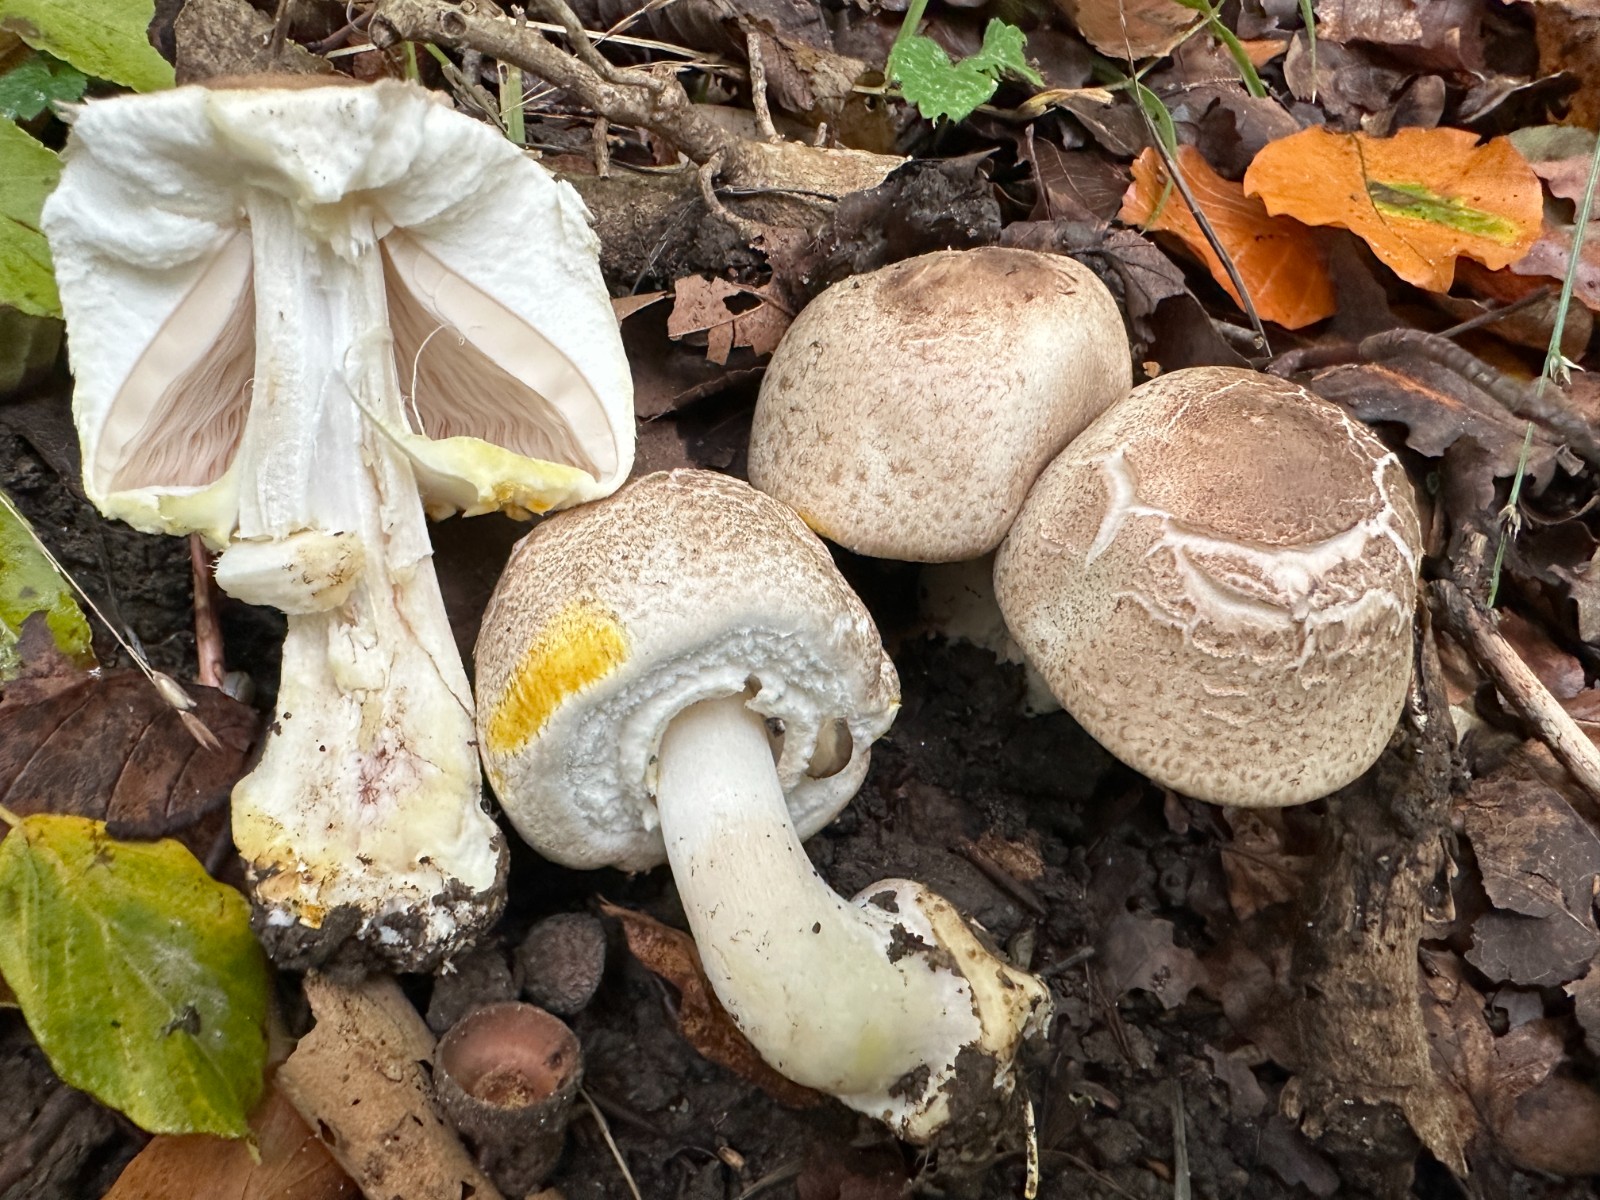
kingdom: Fungi
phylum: Basidiomycota
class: Agaricomycetes
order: Agaricales
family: Agaricaceae
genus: Agaricus
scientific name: Agaricus moelleri
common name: perlehøne-champignon
